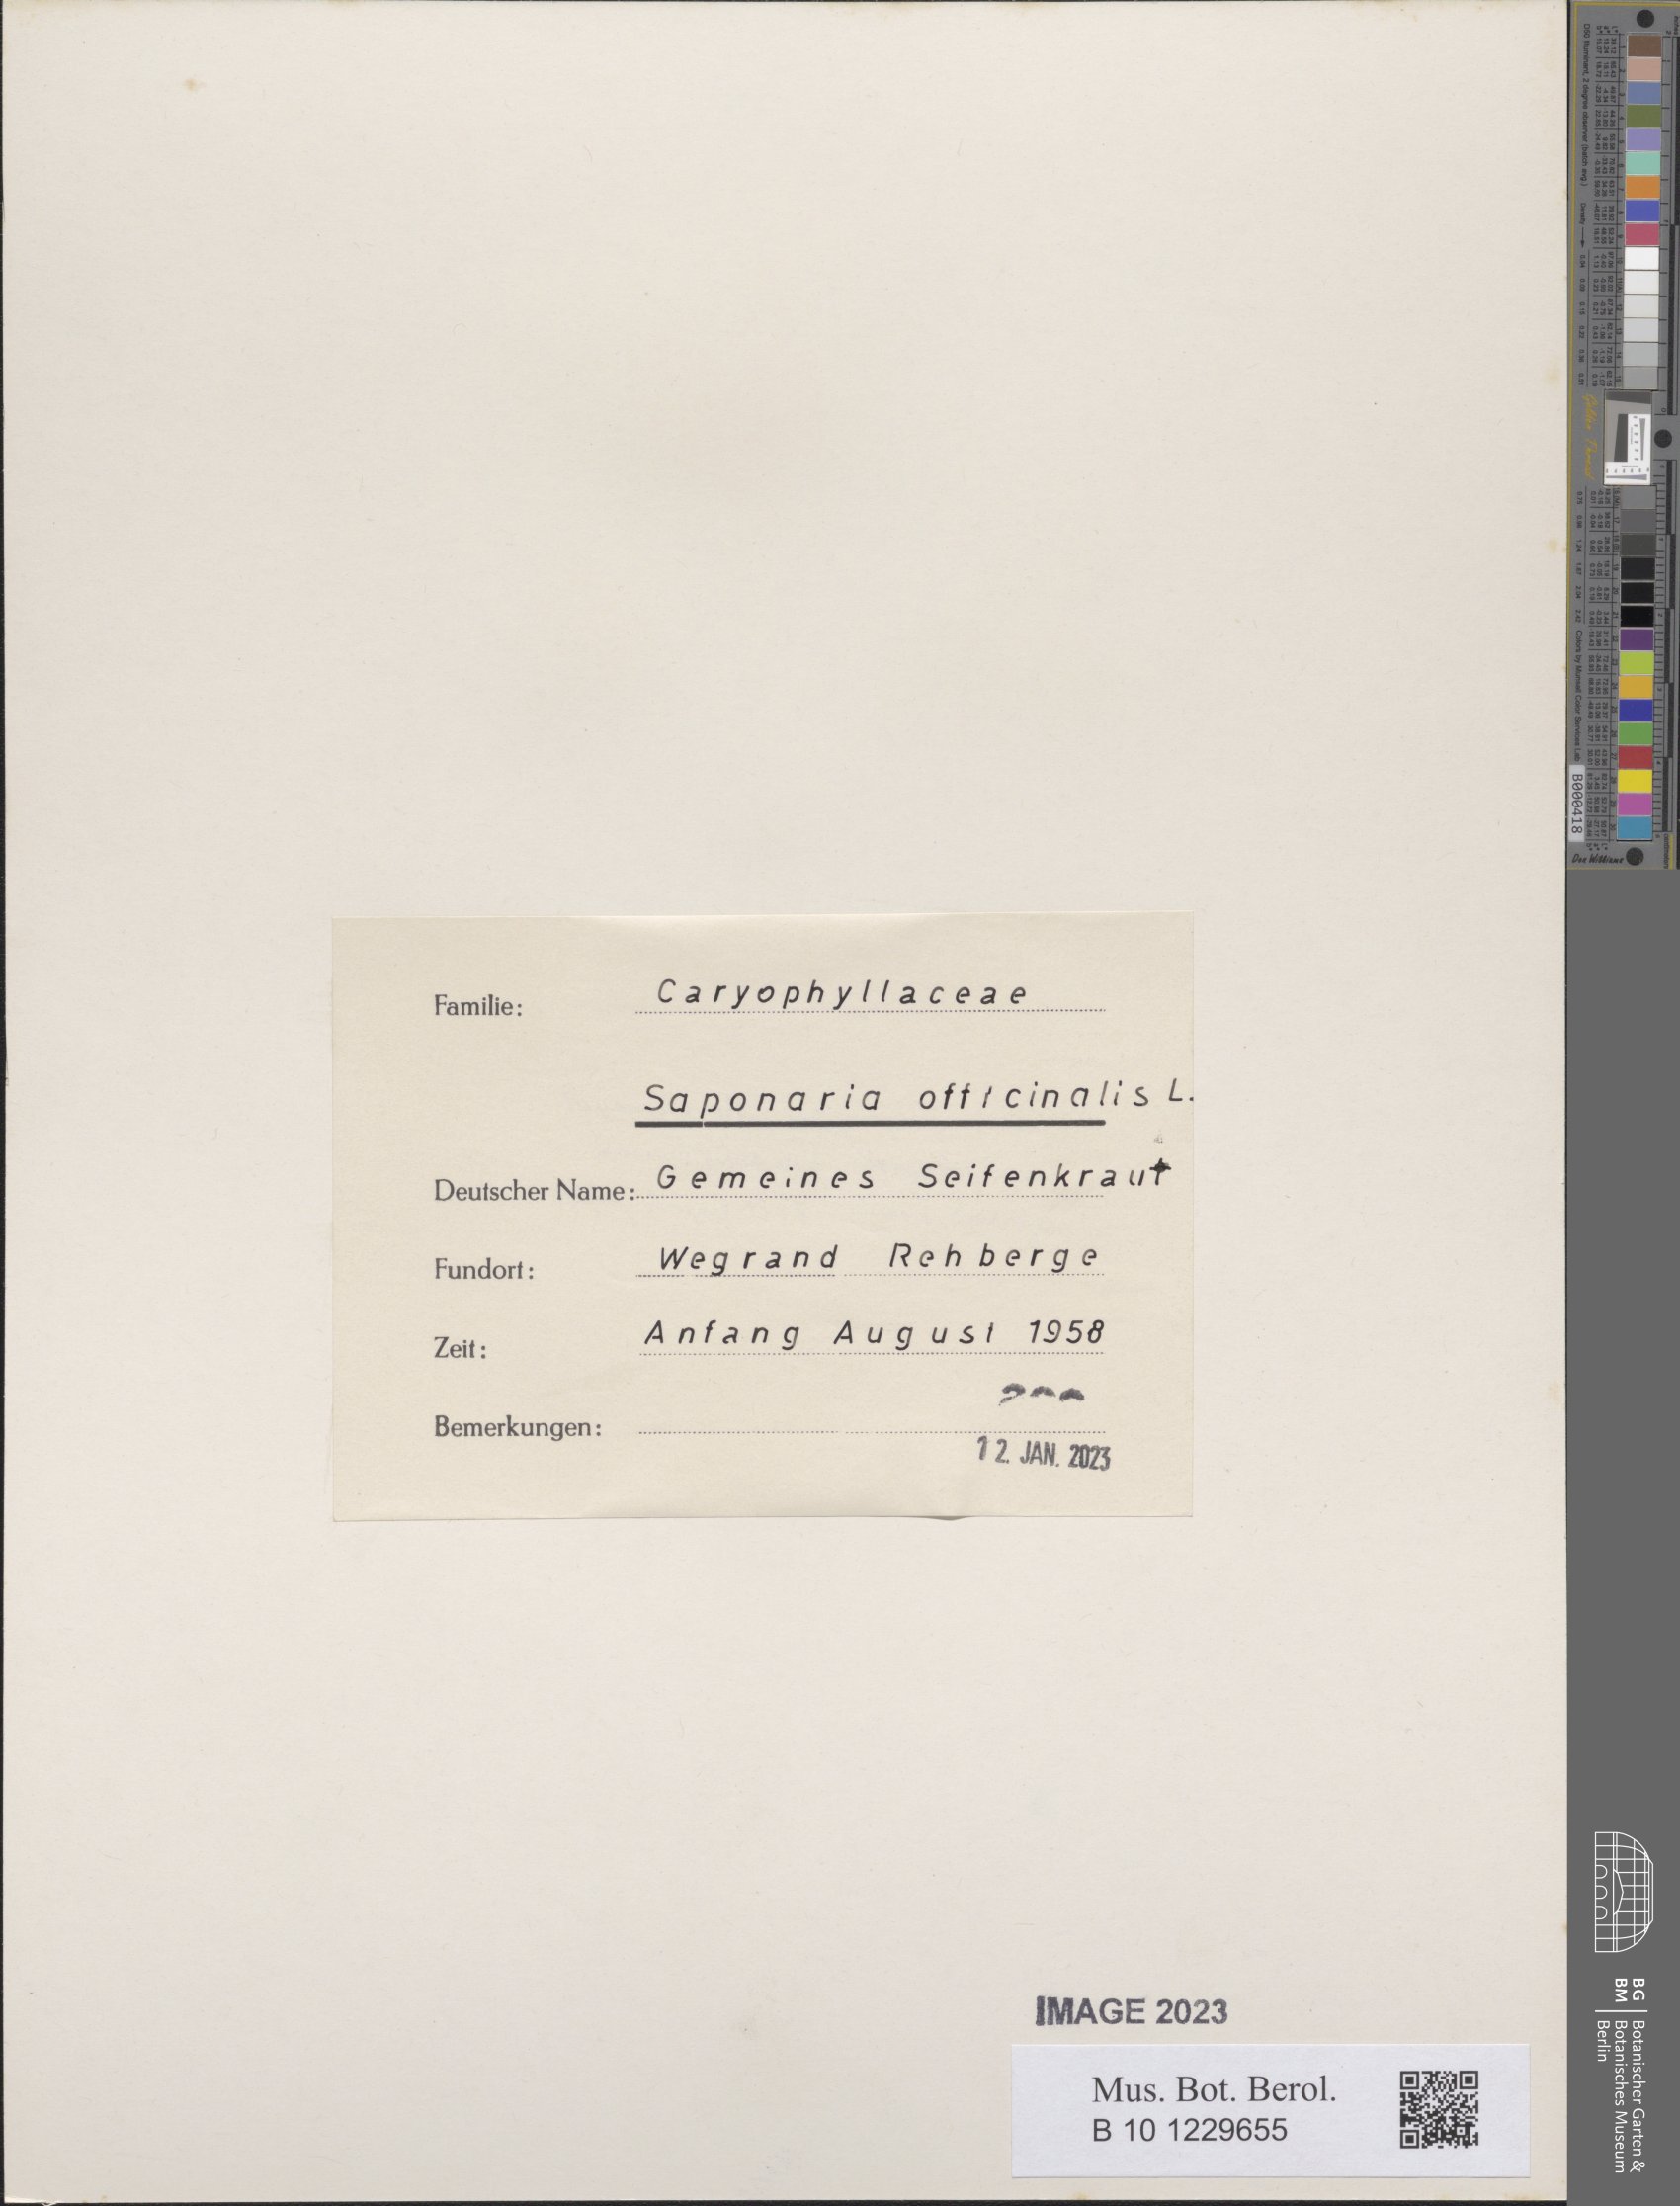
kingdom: Plantae
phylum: Tracheophyta
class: Magnoliopsida
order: Caryophyllales
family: Caryophyllaceae
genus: Saponaria
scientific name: Saponaria officinalis
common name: Soapwort
